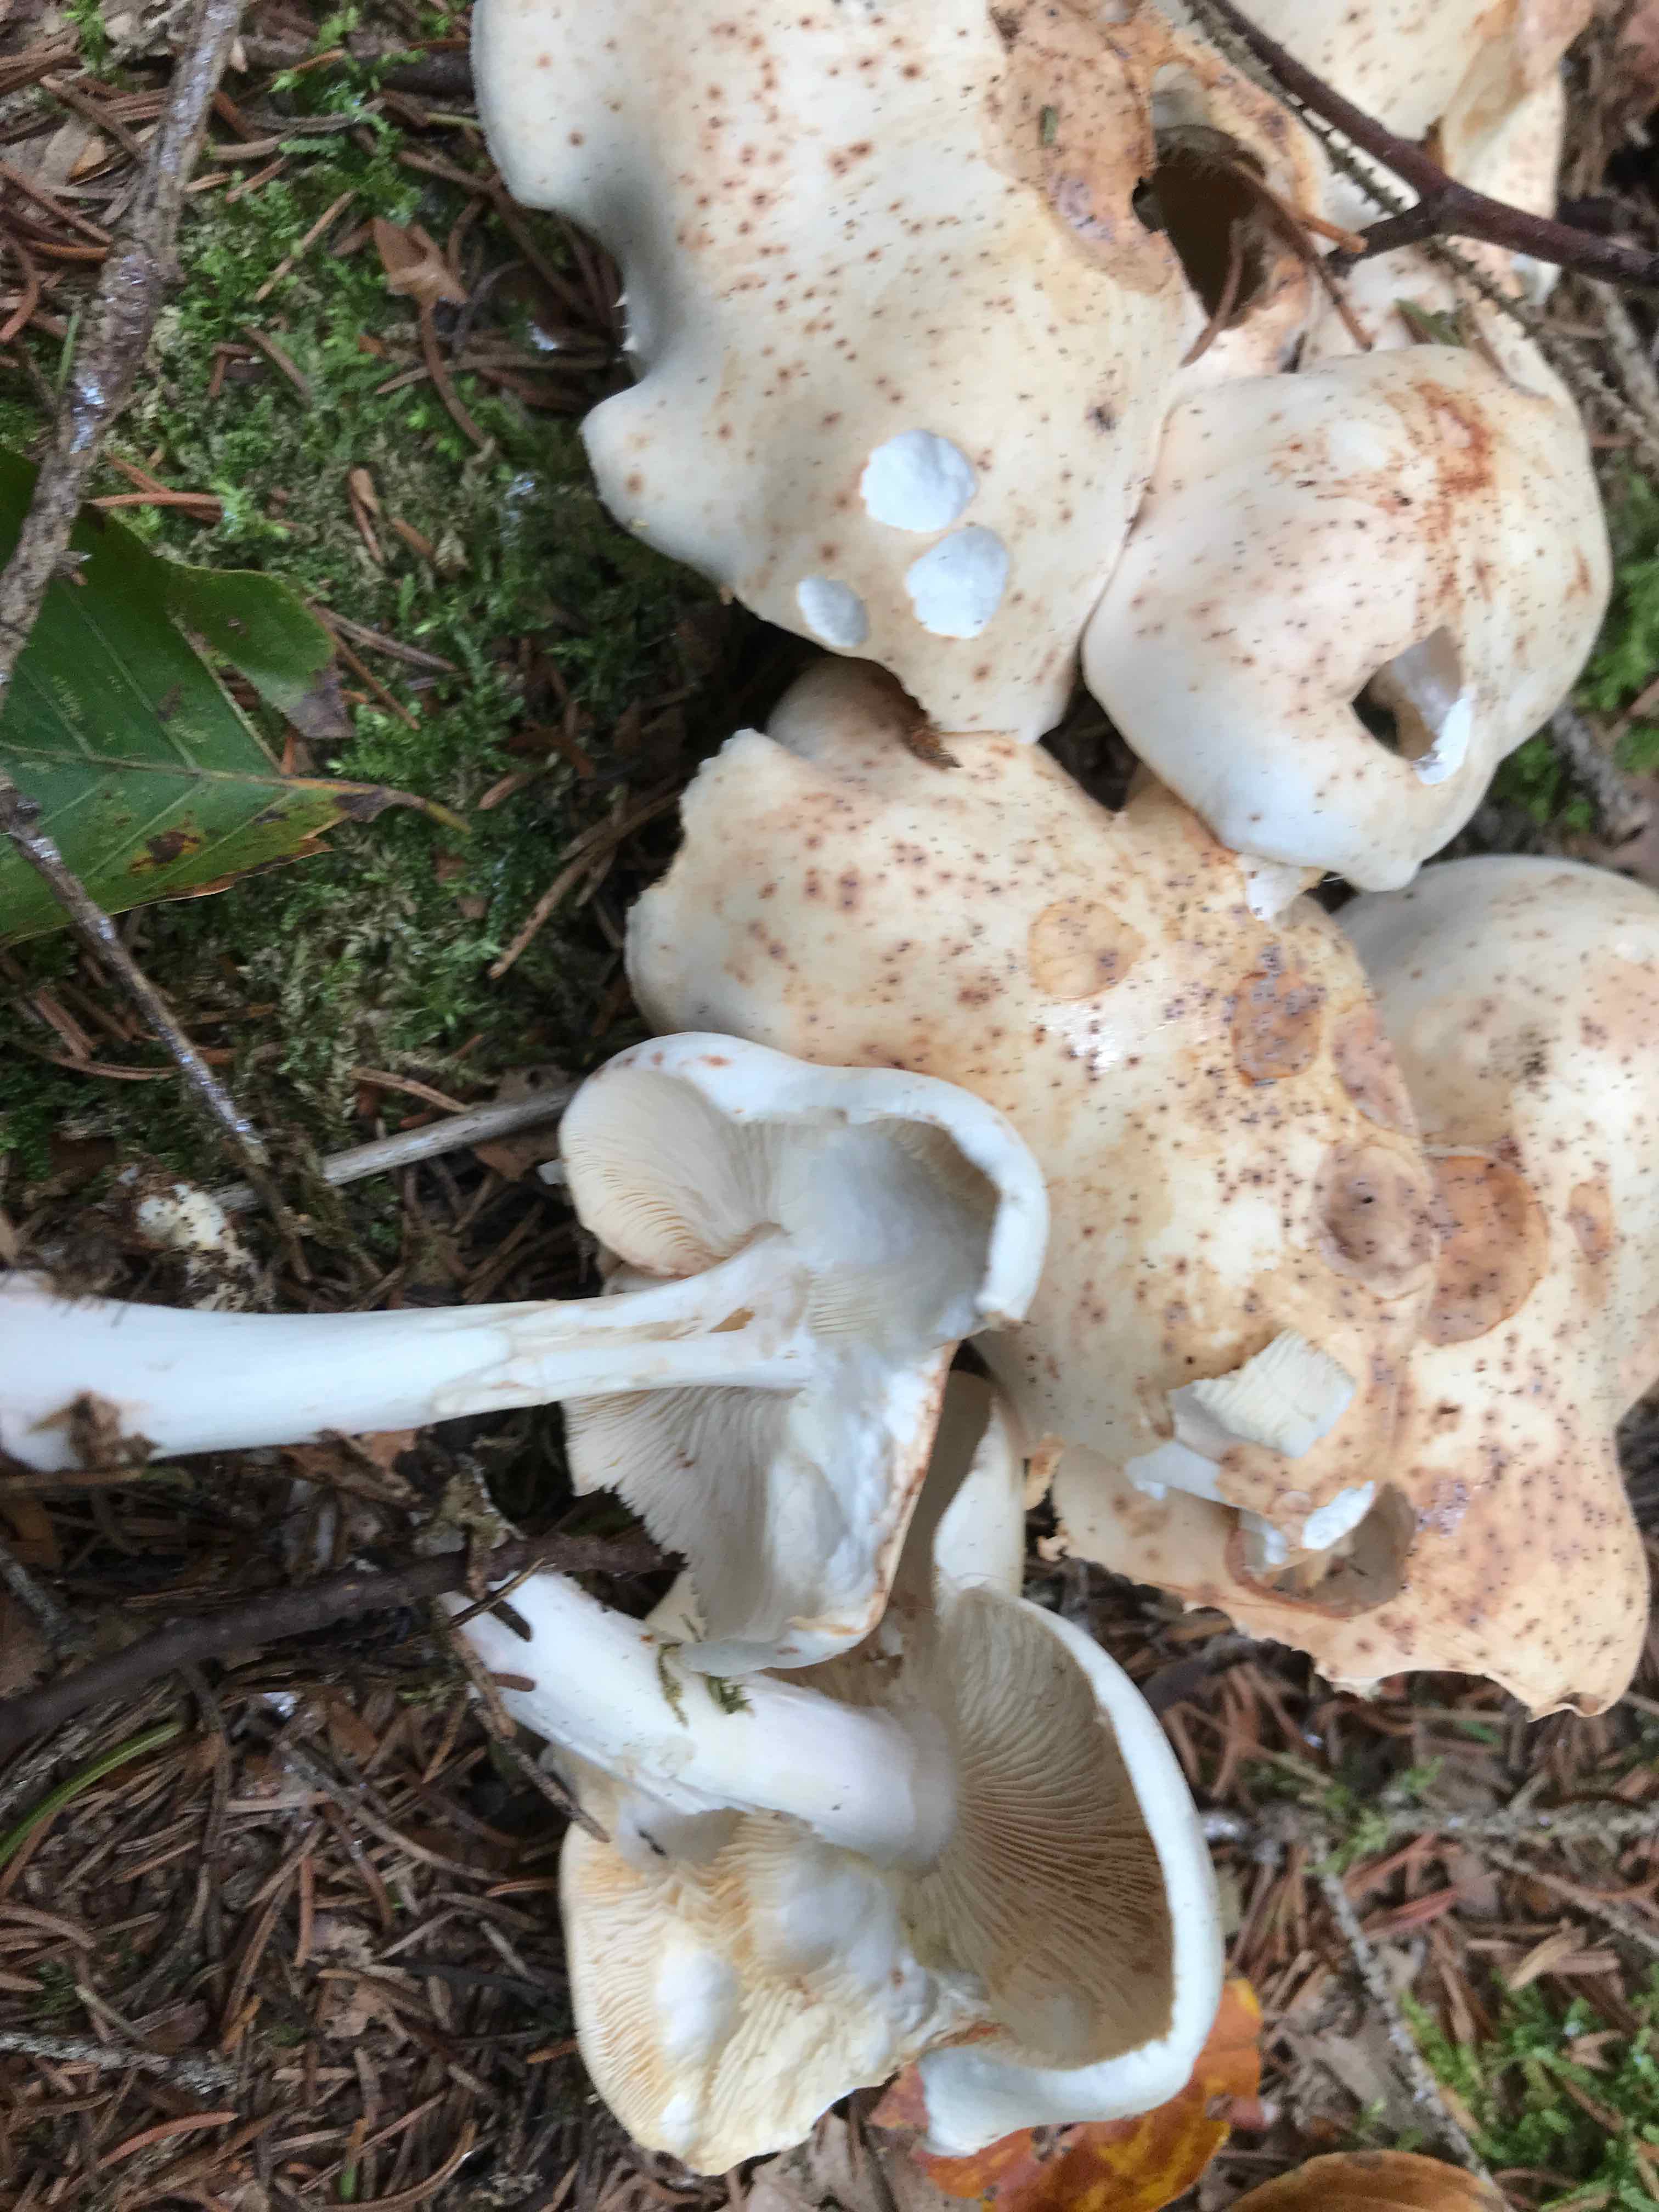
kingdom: Fungi
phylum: Basidiomycota
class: Agaricomycetes
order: Agaricales
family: Omphalotaceae
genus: Rhodocollybia
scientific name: Rhodocollybia maculata
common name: plettet fladhat
